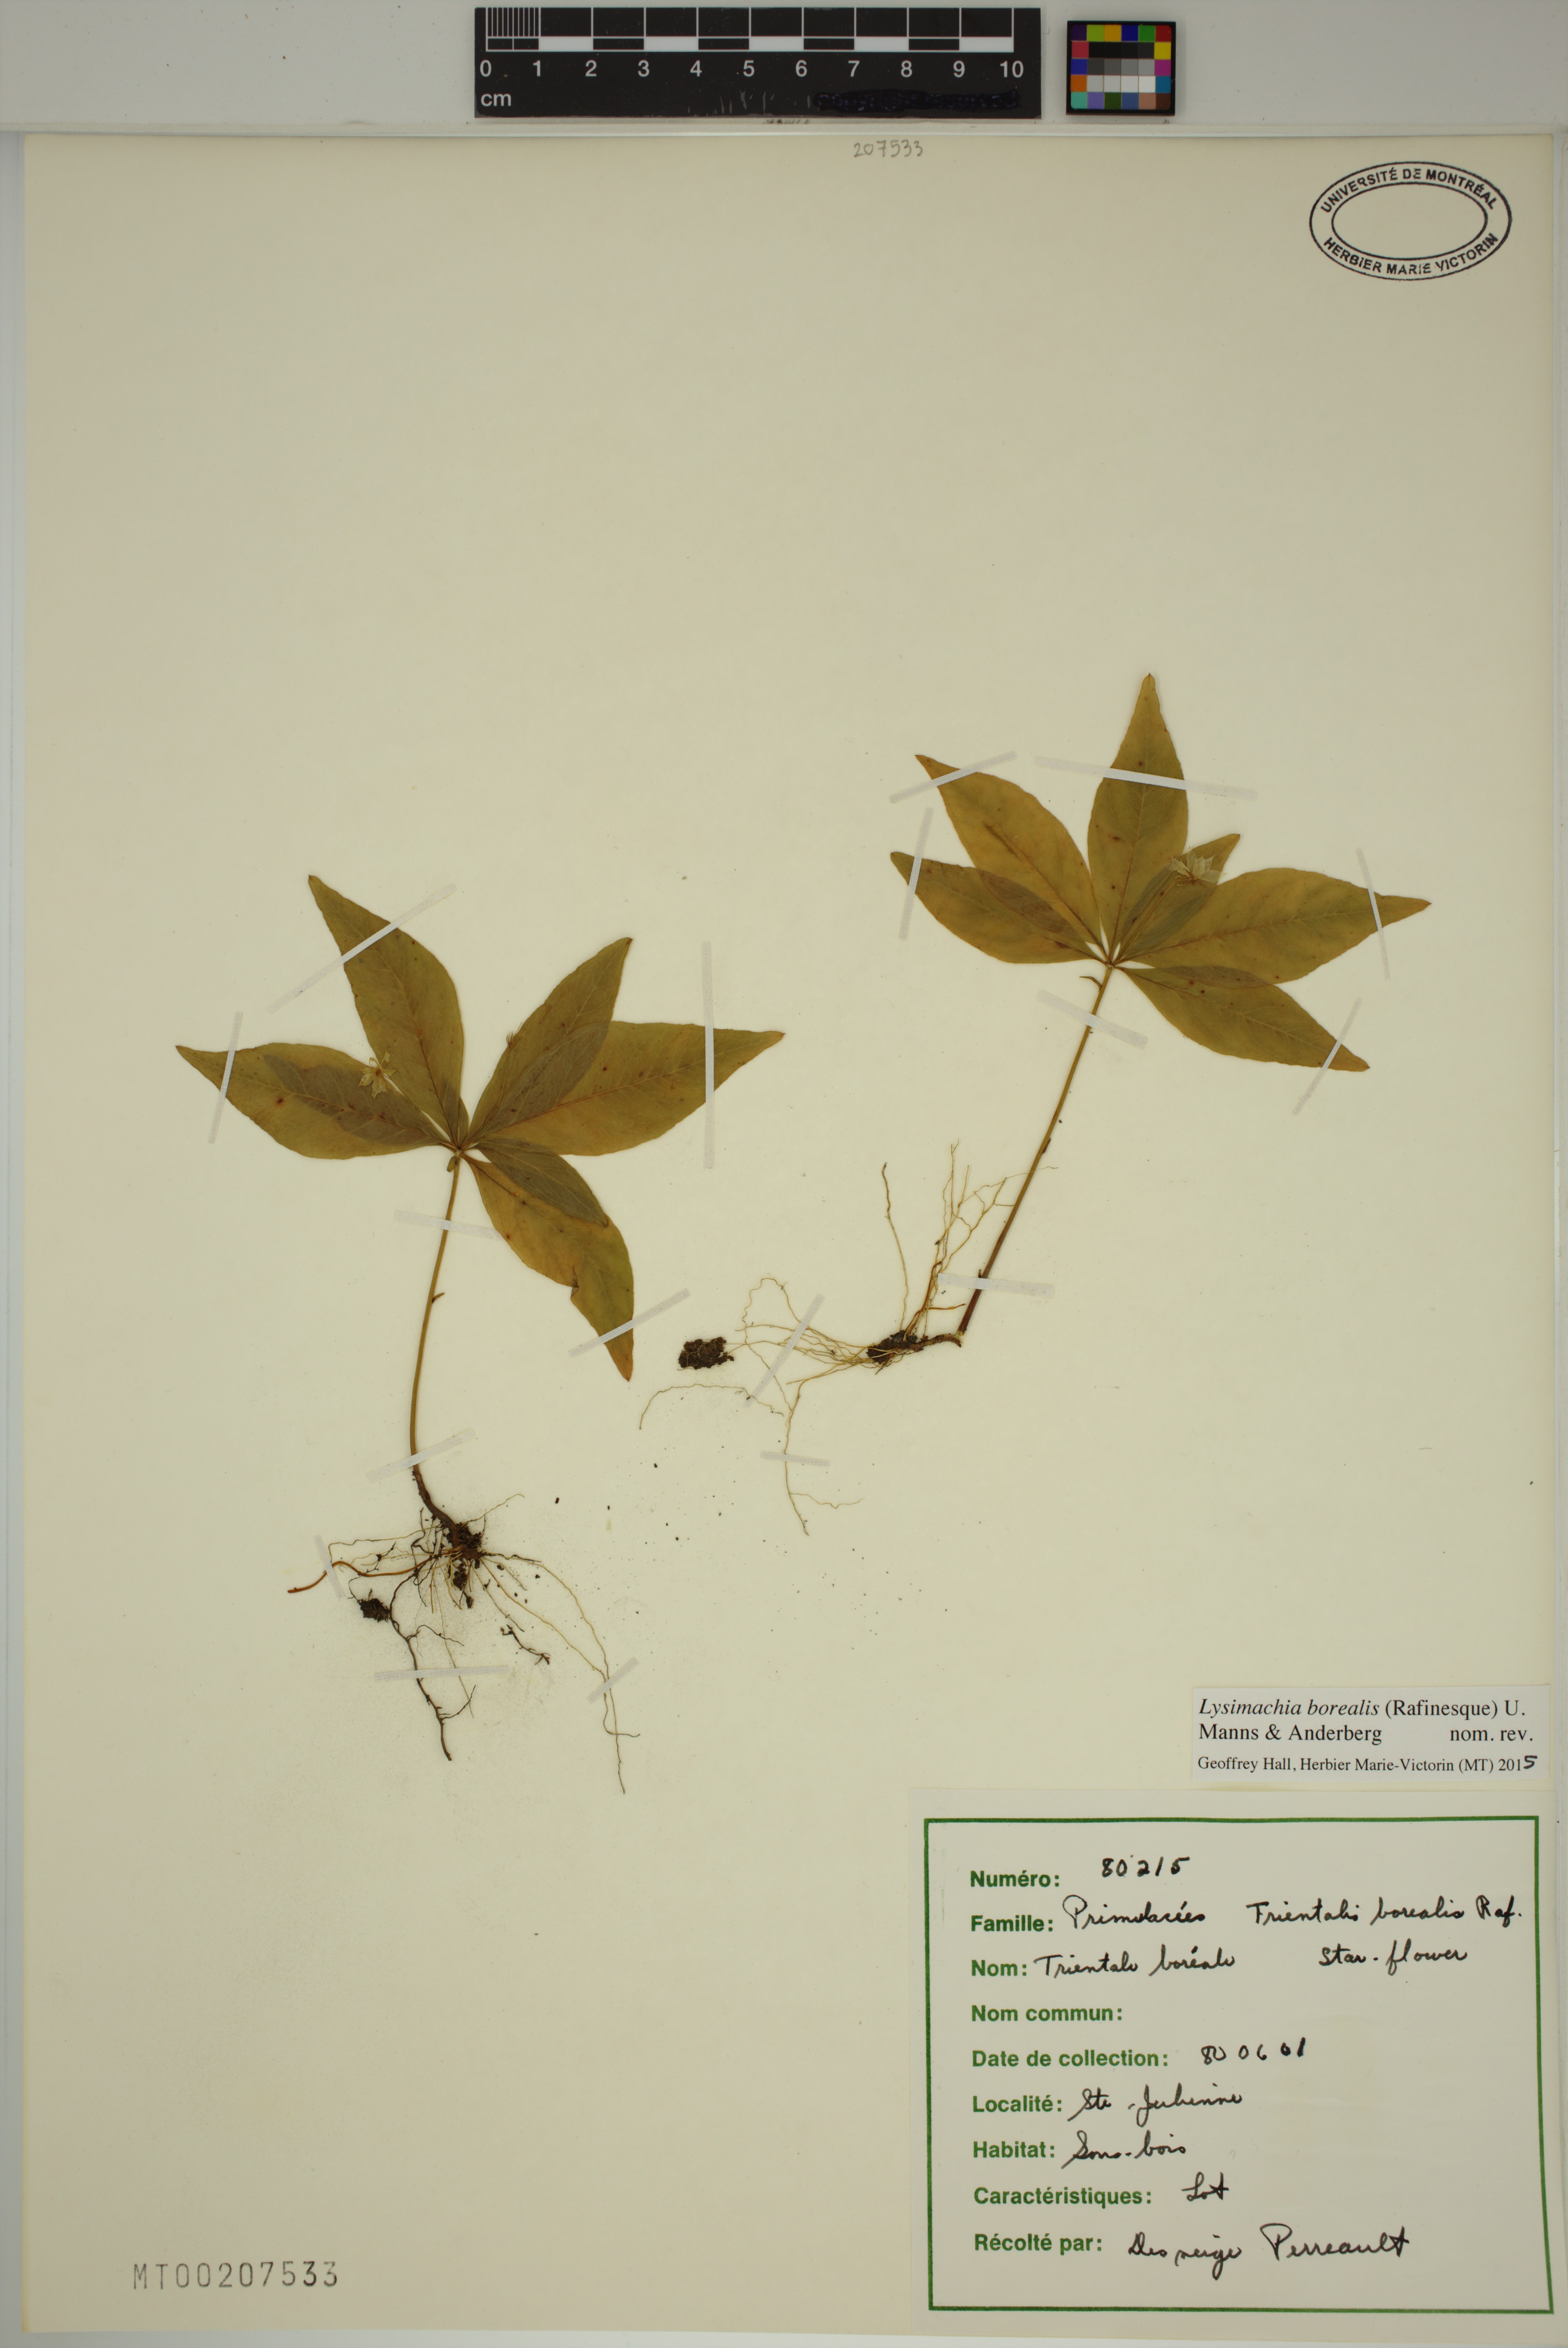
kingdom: Plantae
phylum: Tracheophyta
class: Magnoliopsida
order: Ericales
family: Primulaceae
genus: Lysimachia
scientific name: Lysimachia borealis
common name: American starflower
